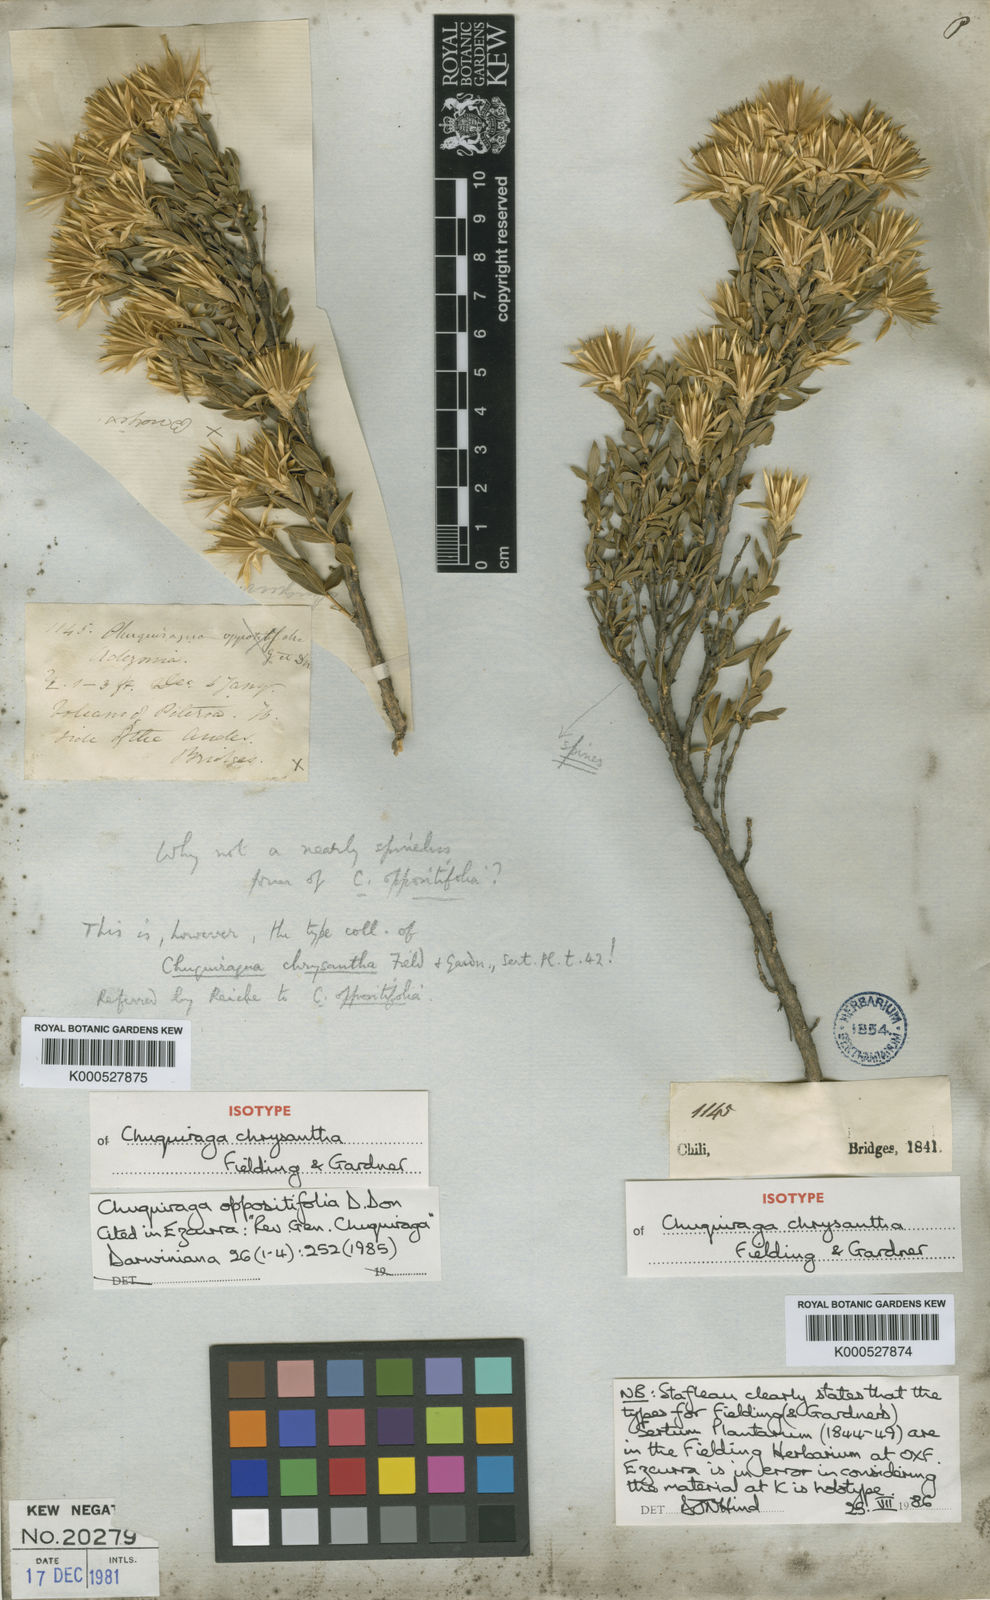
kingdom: Plantae
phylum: Tracheophyta
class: Magnoliopsida
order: Asterales
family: Asteraceae
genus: Chuquiraga
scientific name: Chuquiraga oppositifolia
